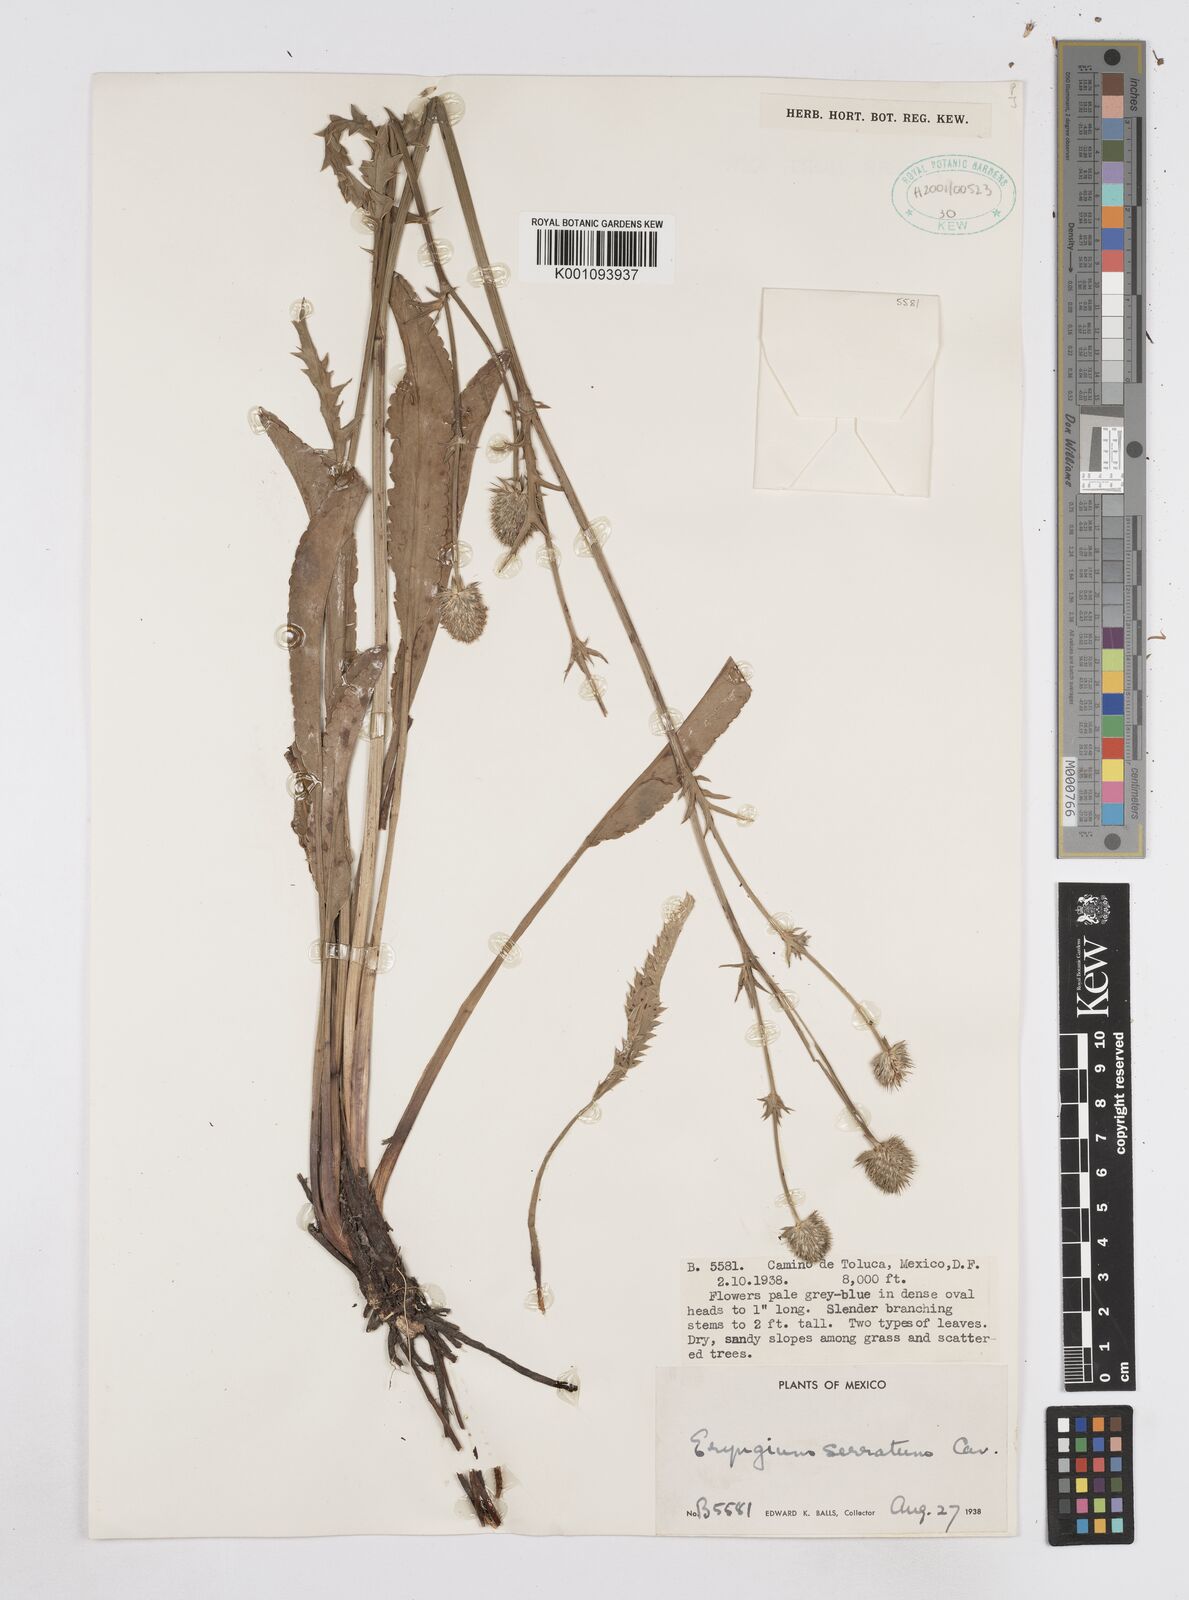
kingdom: Plantae
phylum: Tracheophyta
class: Magnoliopsida
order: Apiales
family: Apiaceae
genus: Eryngium
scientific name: Eryngium serratum
